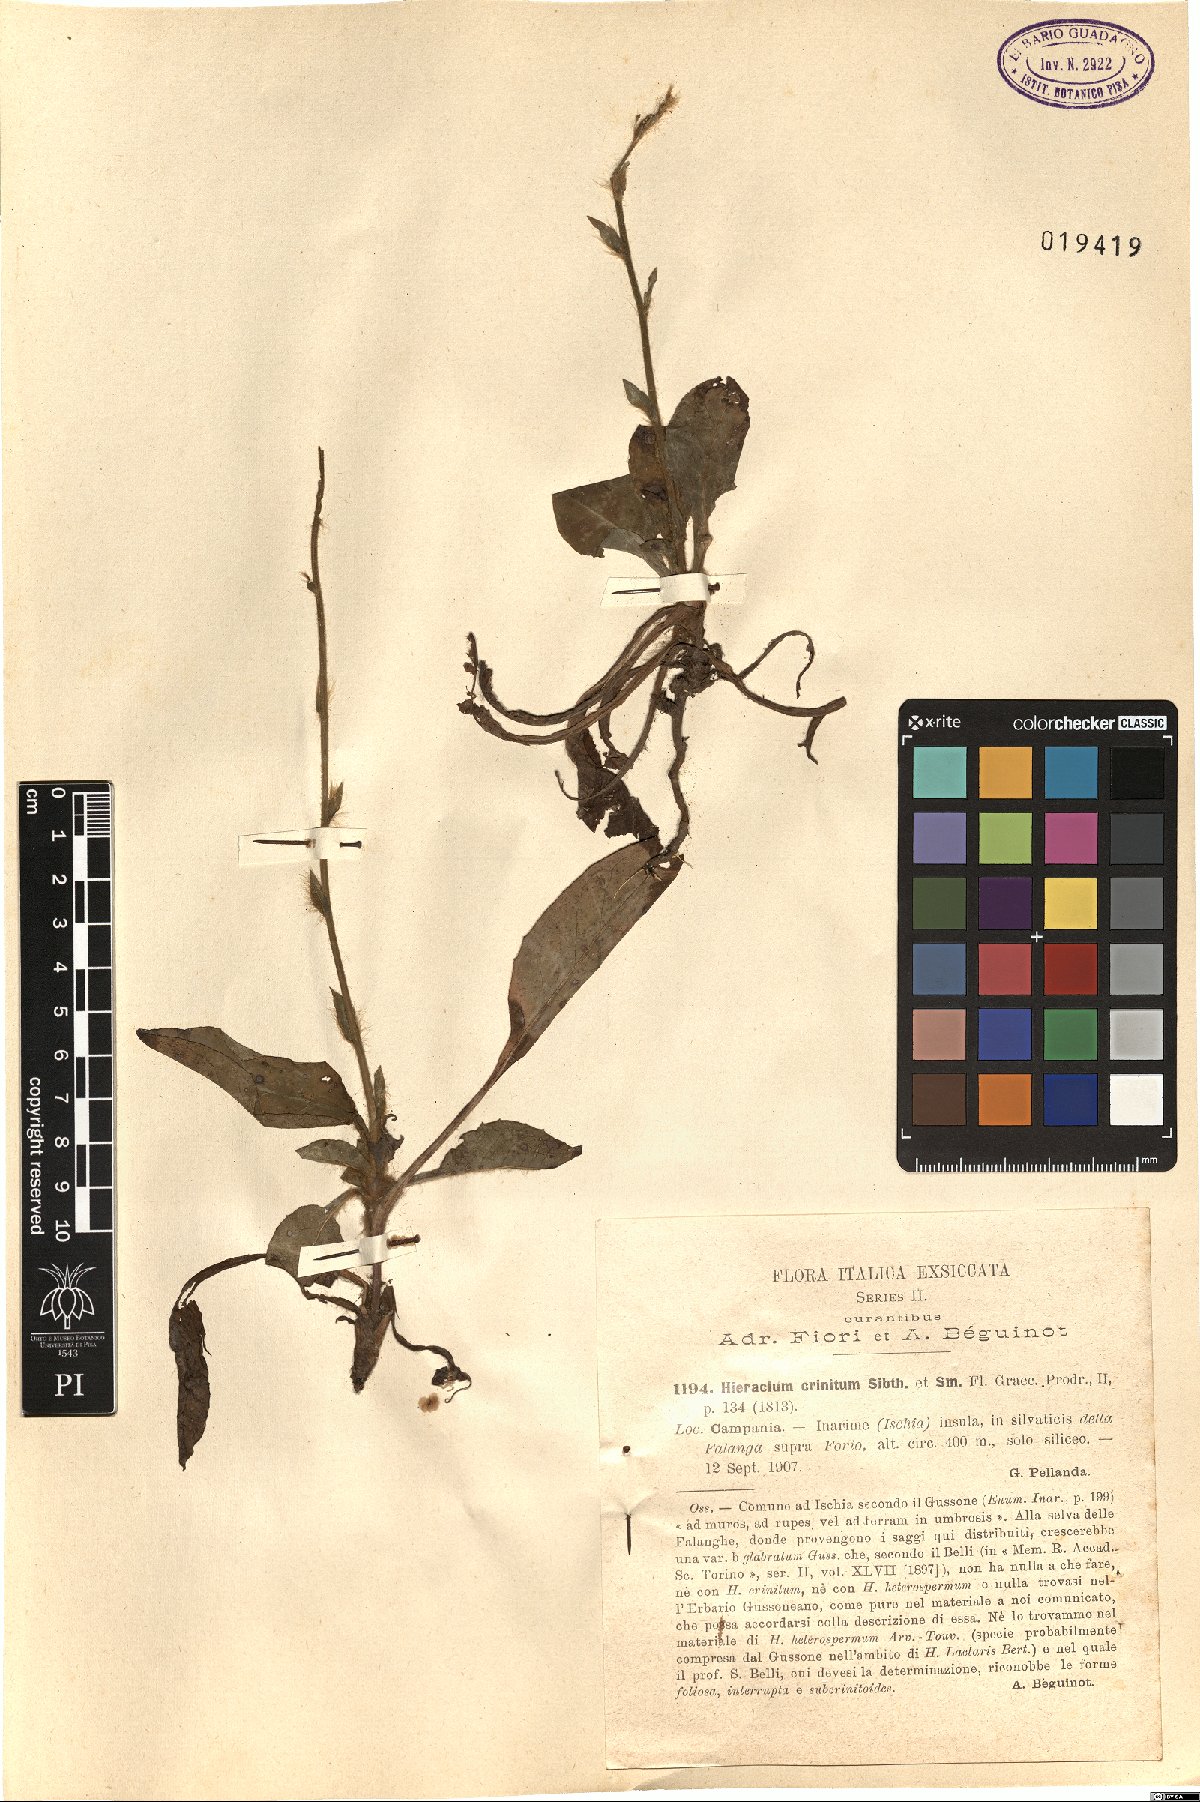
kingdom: Plantae
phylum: Tracheophyta
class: Magnoliopsida
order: Asterales
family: Asteraceae
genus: Hieracium
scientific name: Hieracium racemosum
